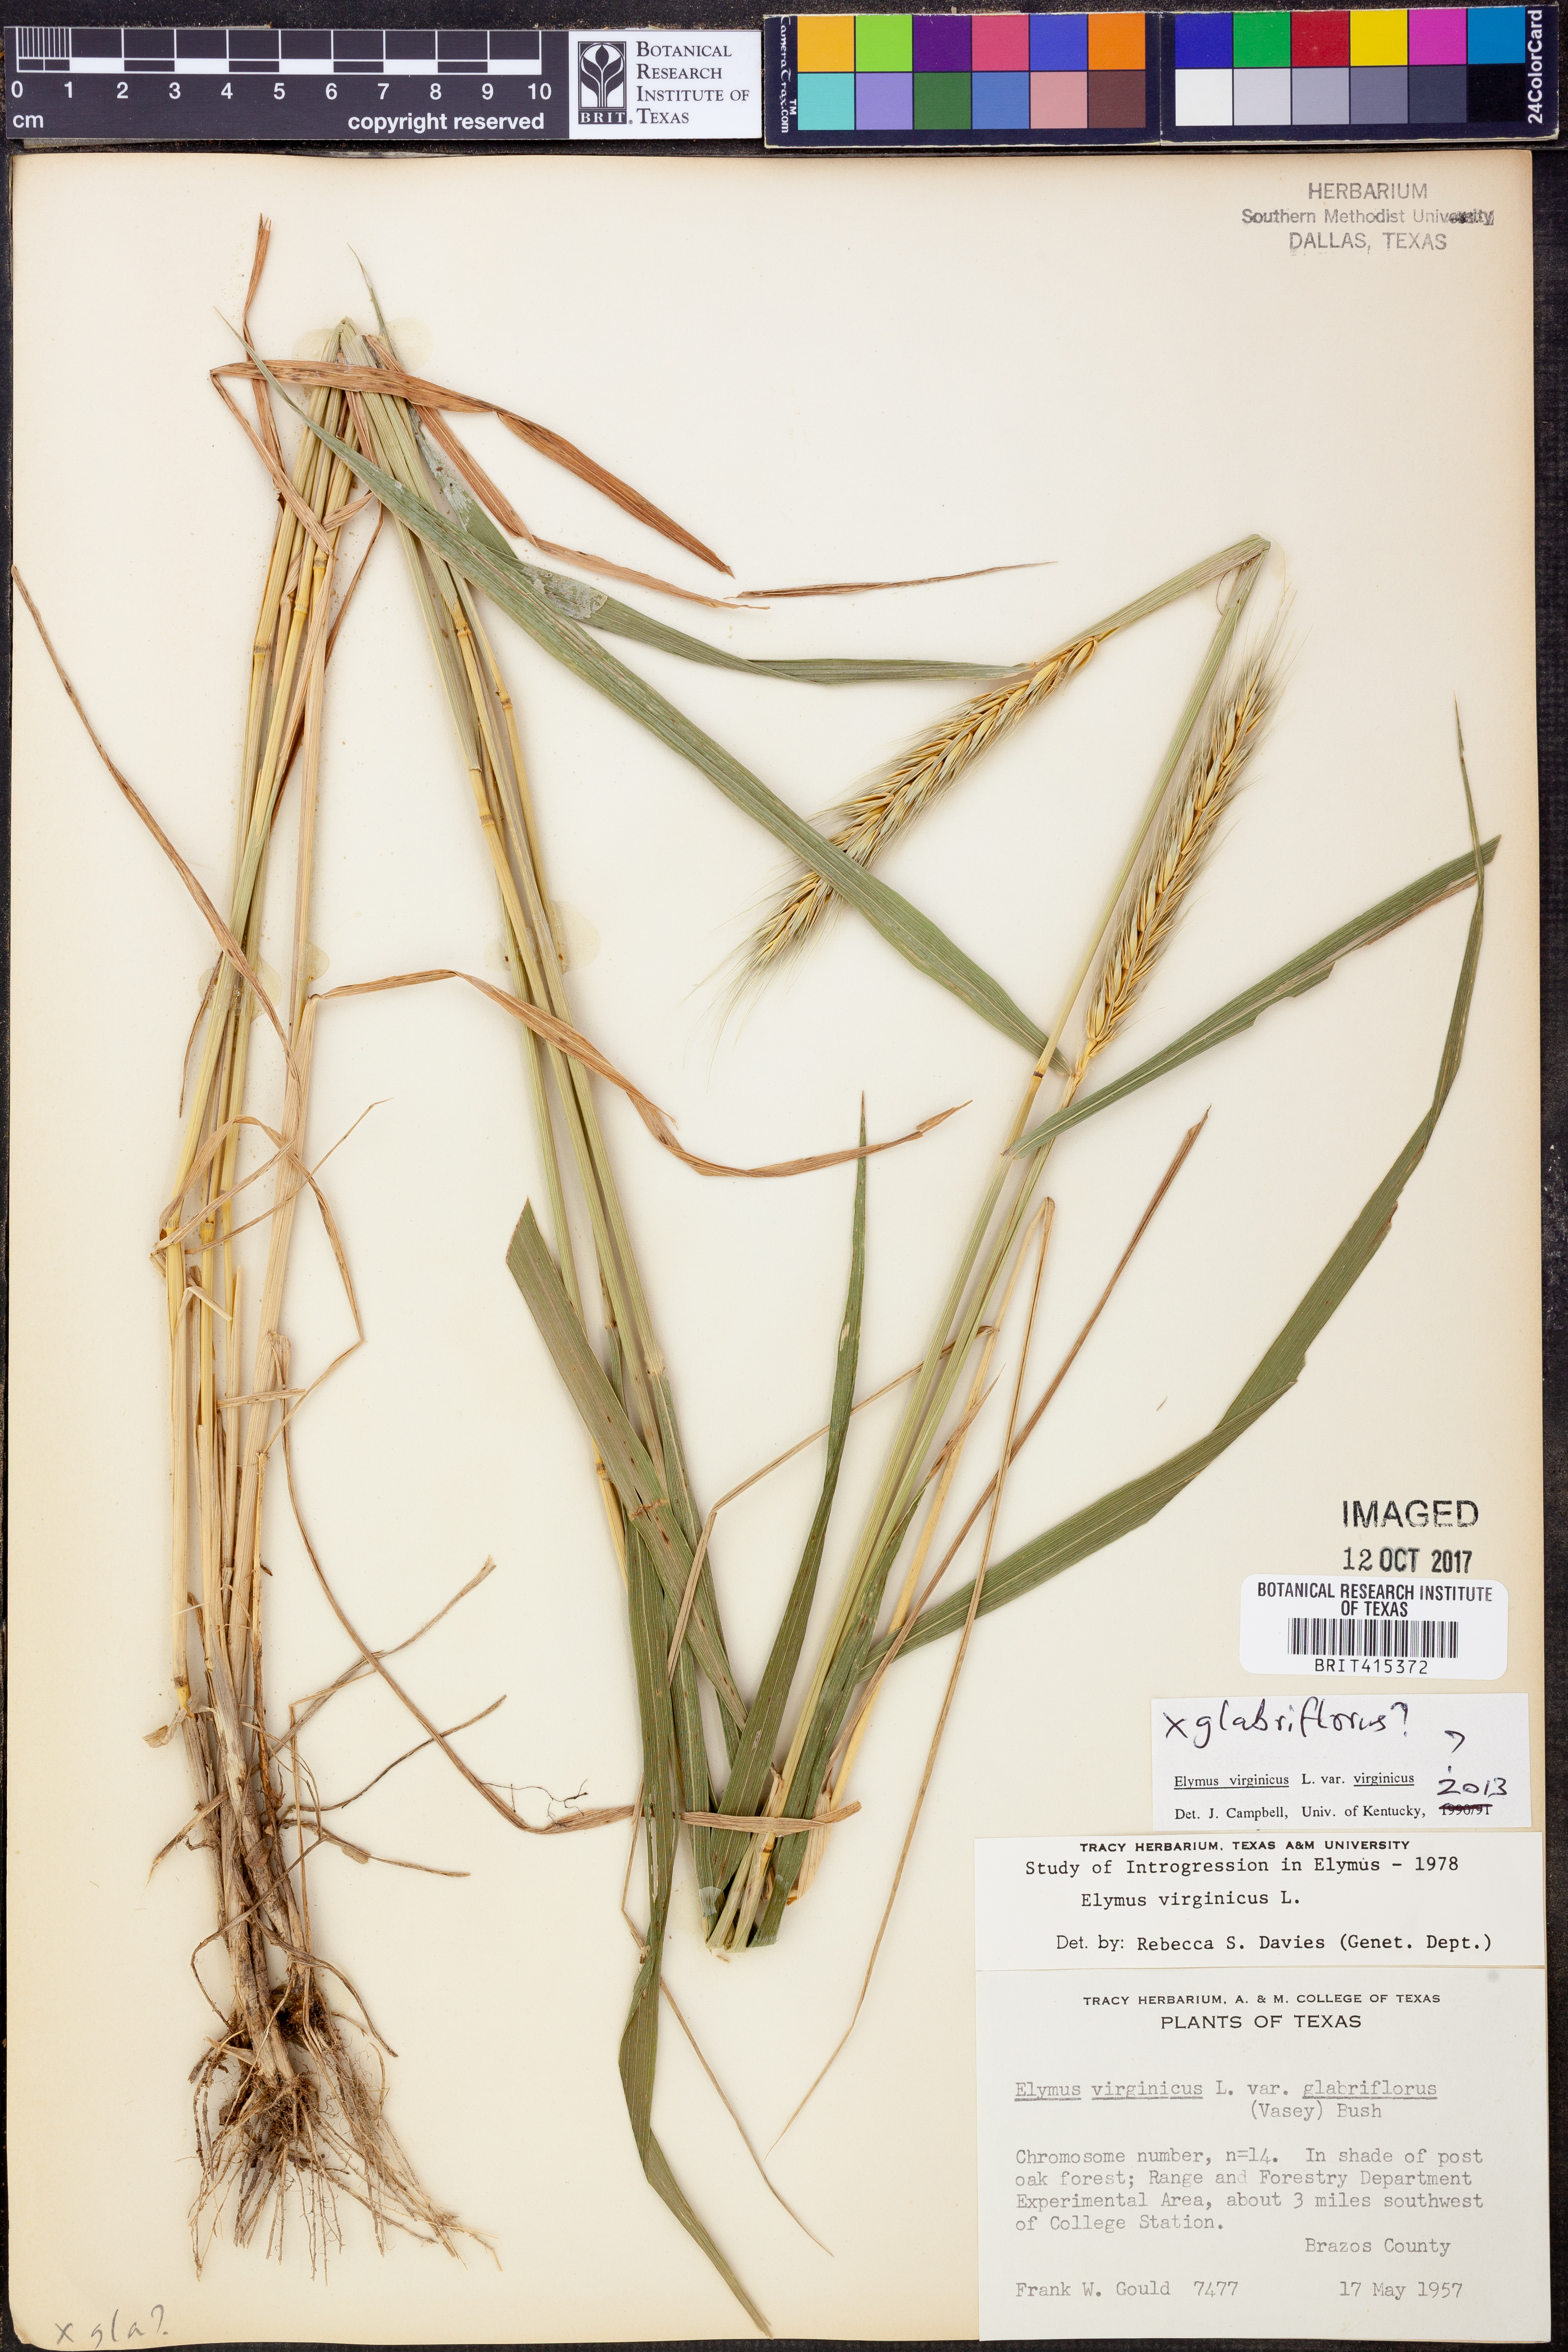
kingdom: Plantae
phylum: Tracheophyta
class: Liliopsida
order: Poales
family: Poaceae
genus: Elymus
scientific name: Elymus virginicus
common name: Common eastern wildrye
